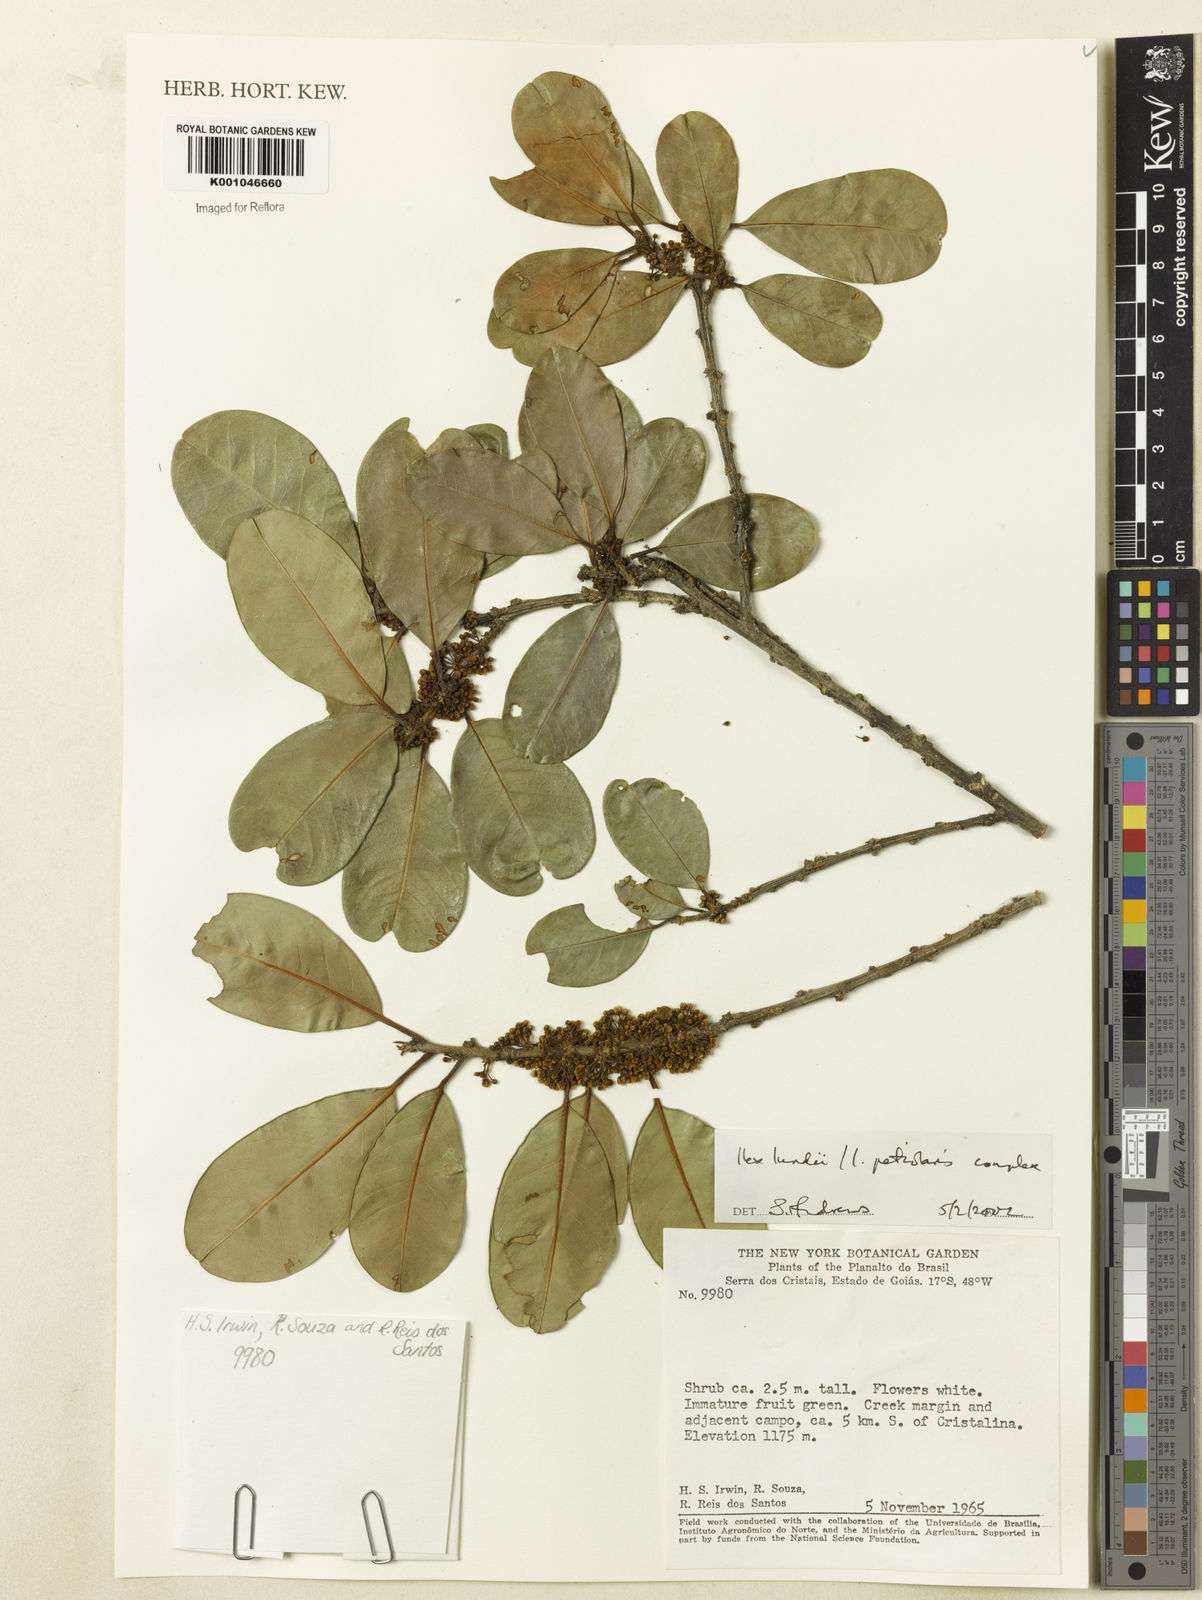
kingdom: Plantae
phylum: Tracheophyta
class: Magnoliopsida
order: Aquifoliales
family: Aquifoliaceae
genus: Ilex
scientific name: Ilex lundii
